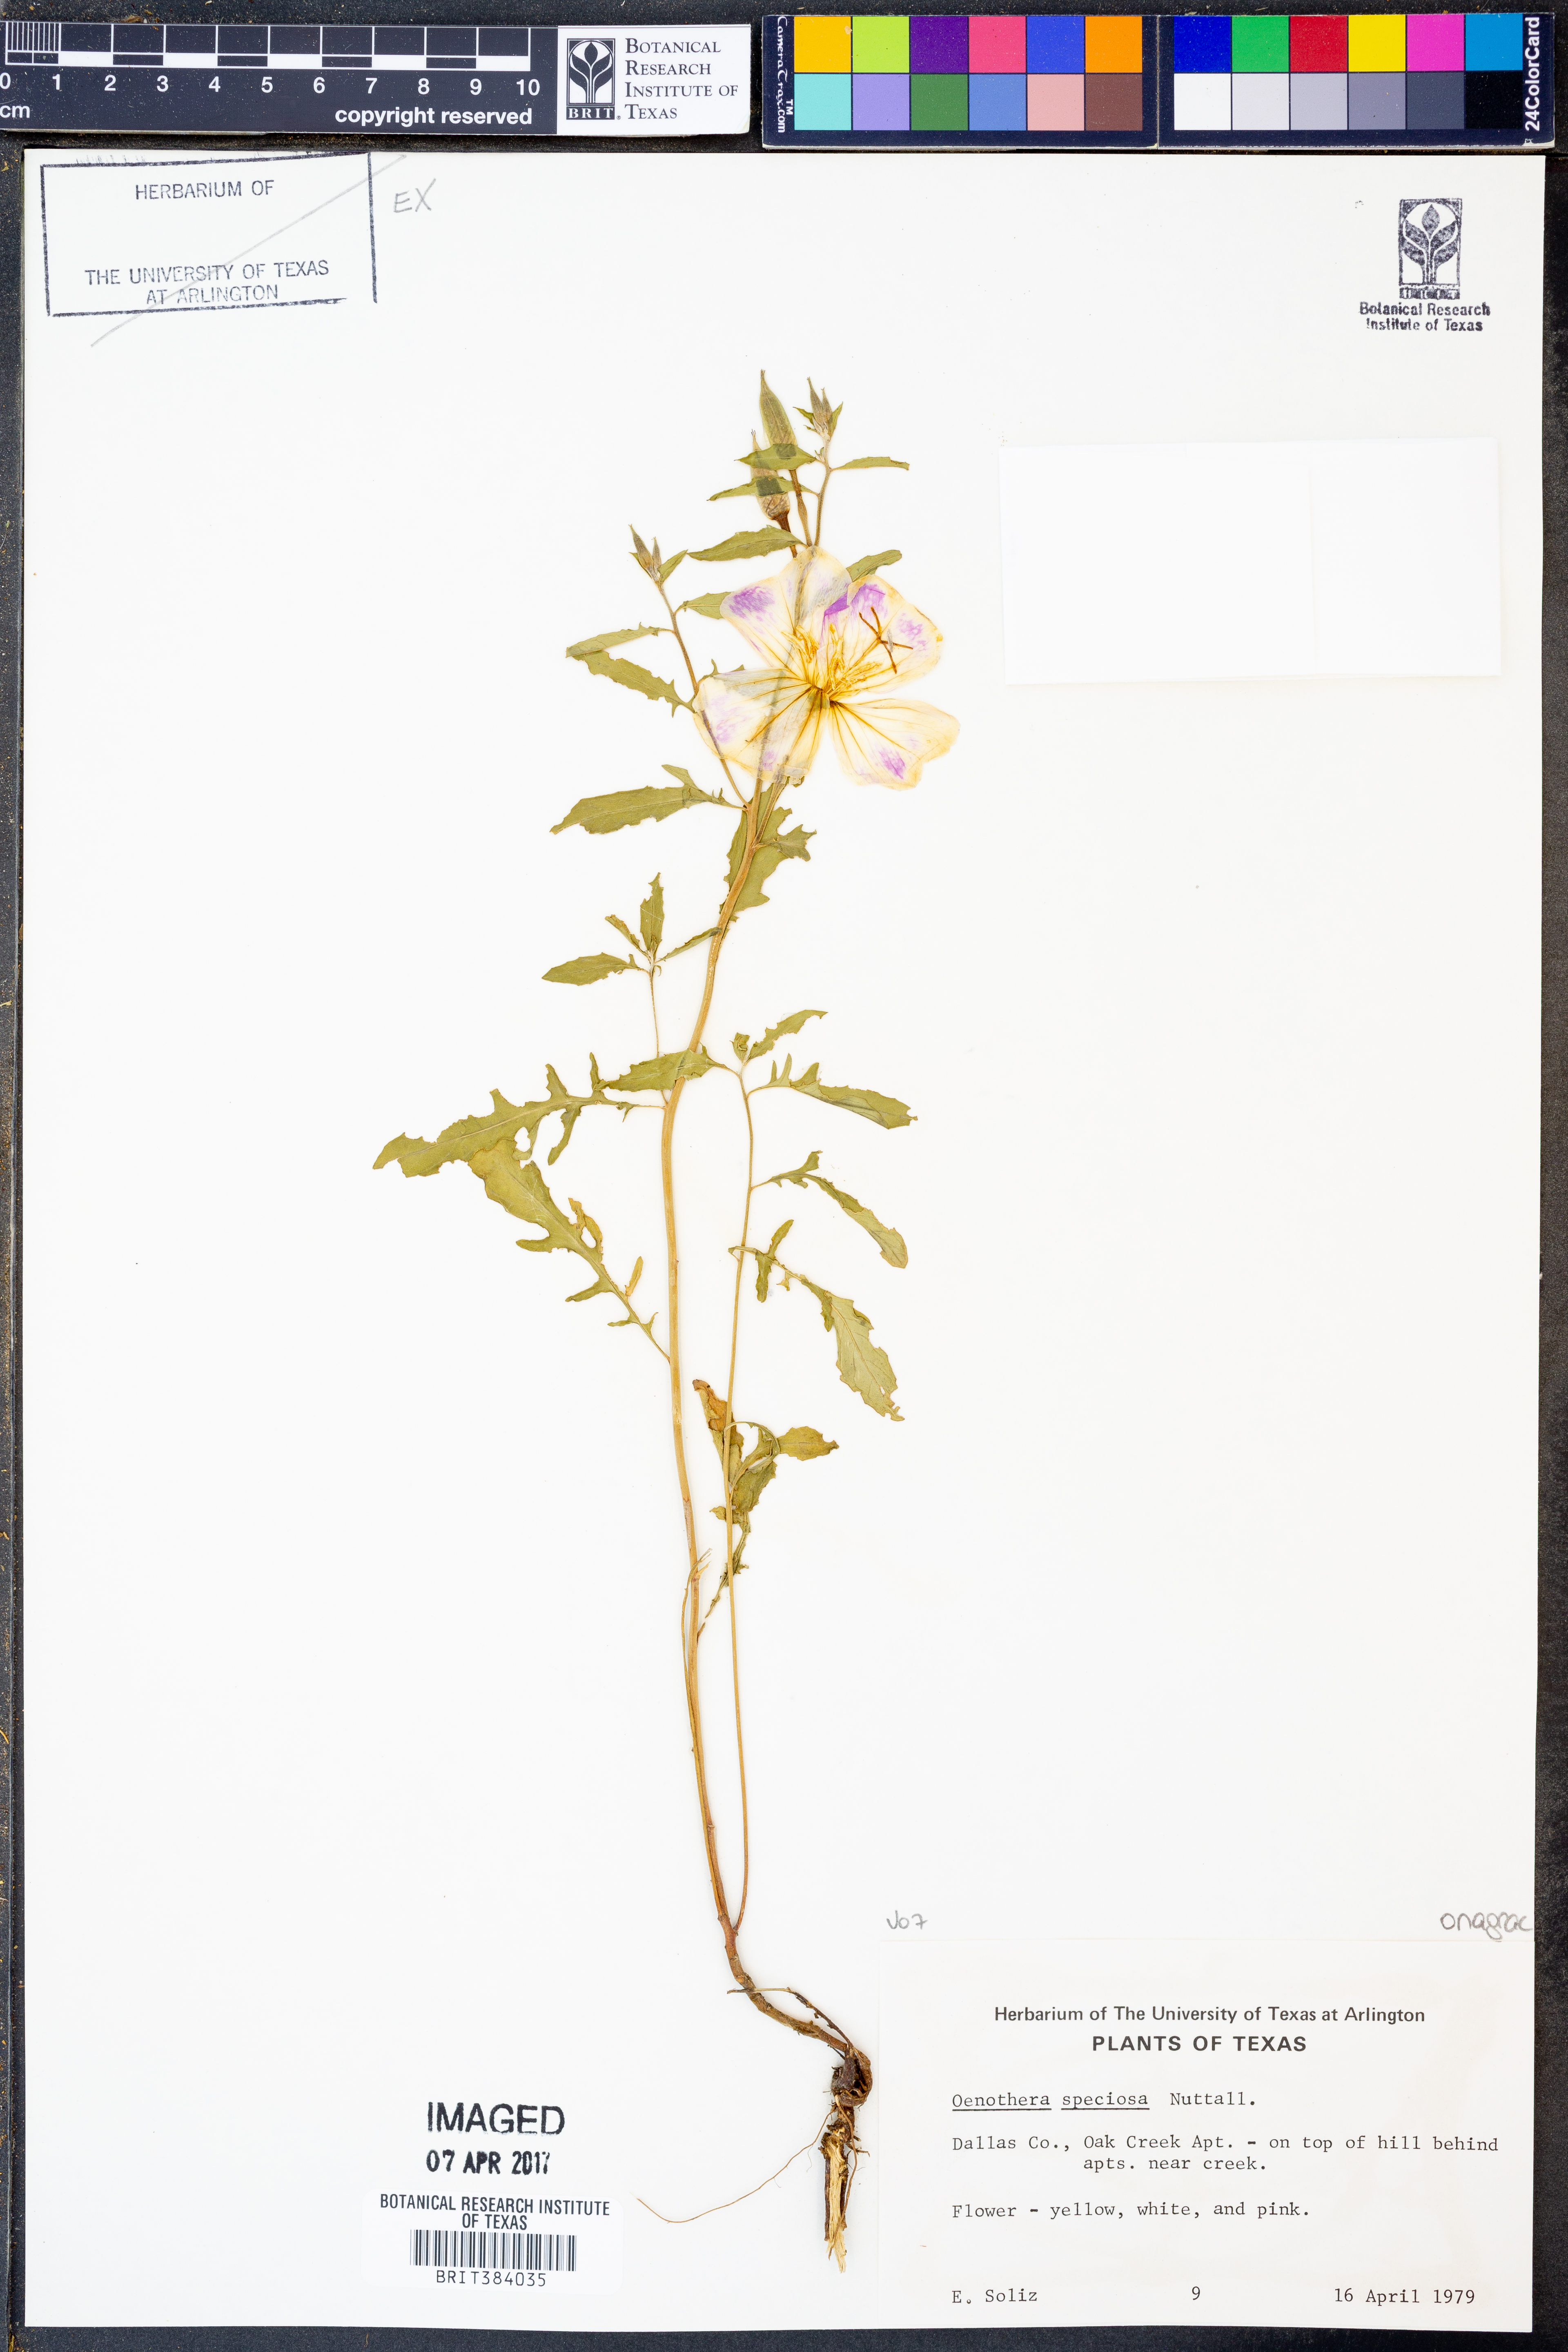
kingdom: Plantae
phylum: Tracheophyta
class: Magnoliopsida
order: Myrtales
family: Onagraceae
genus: Oenothera
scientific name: Oenothera speciosa
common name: White evening-primrose
